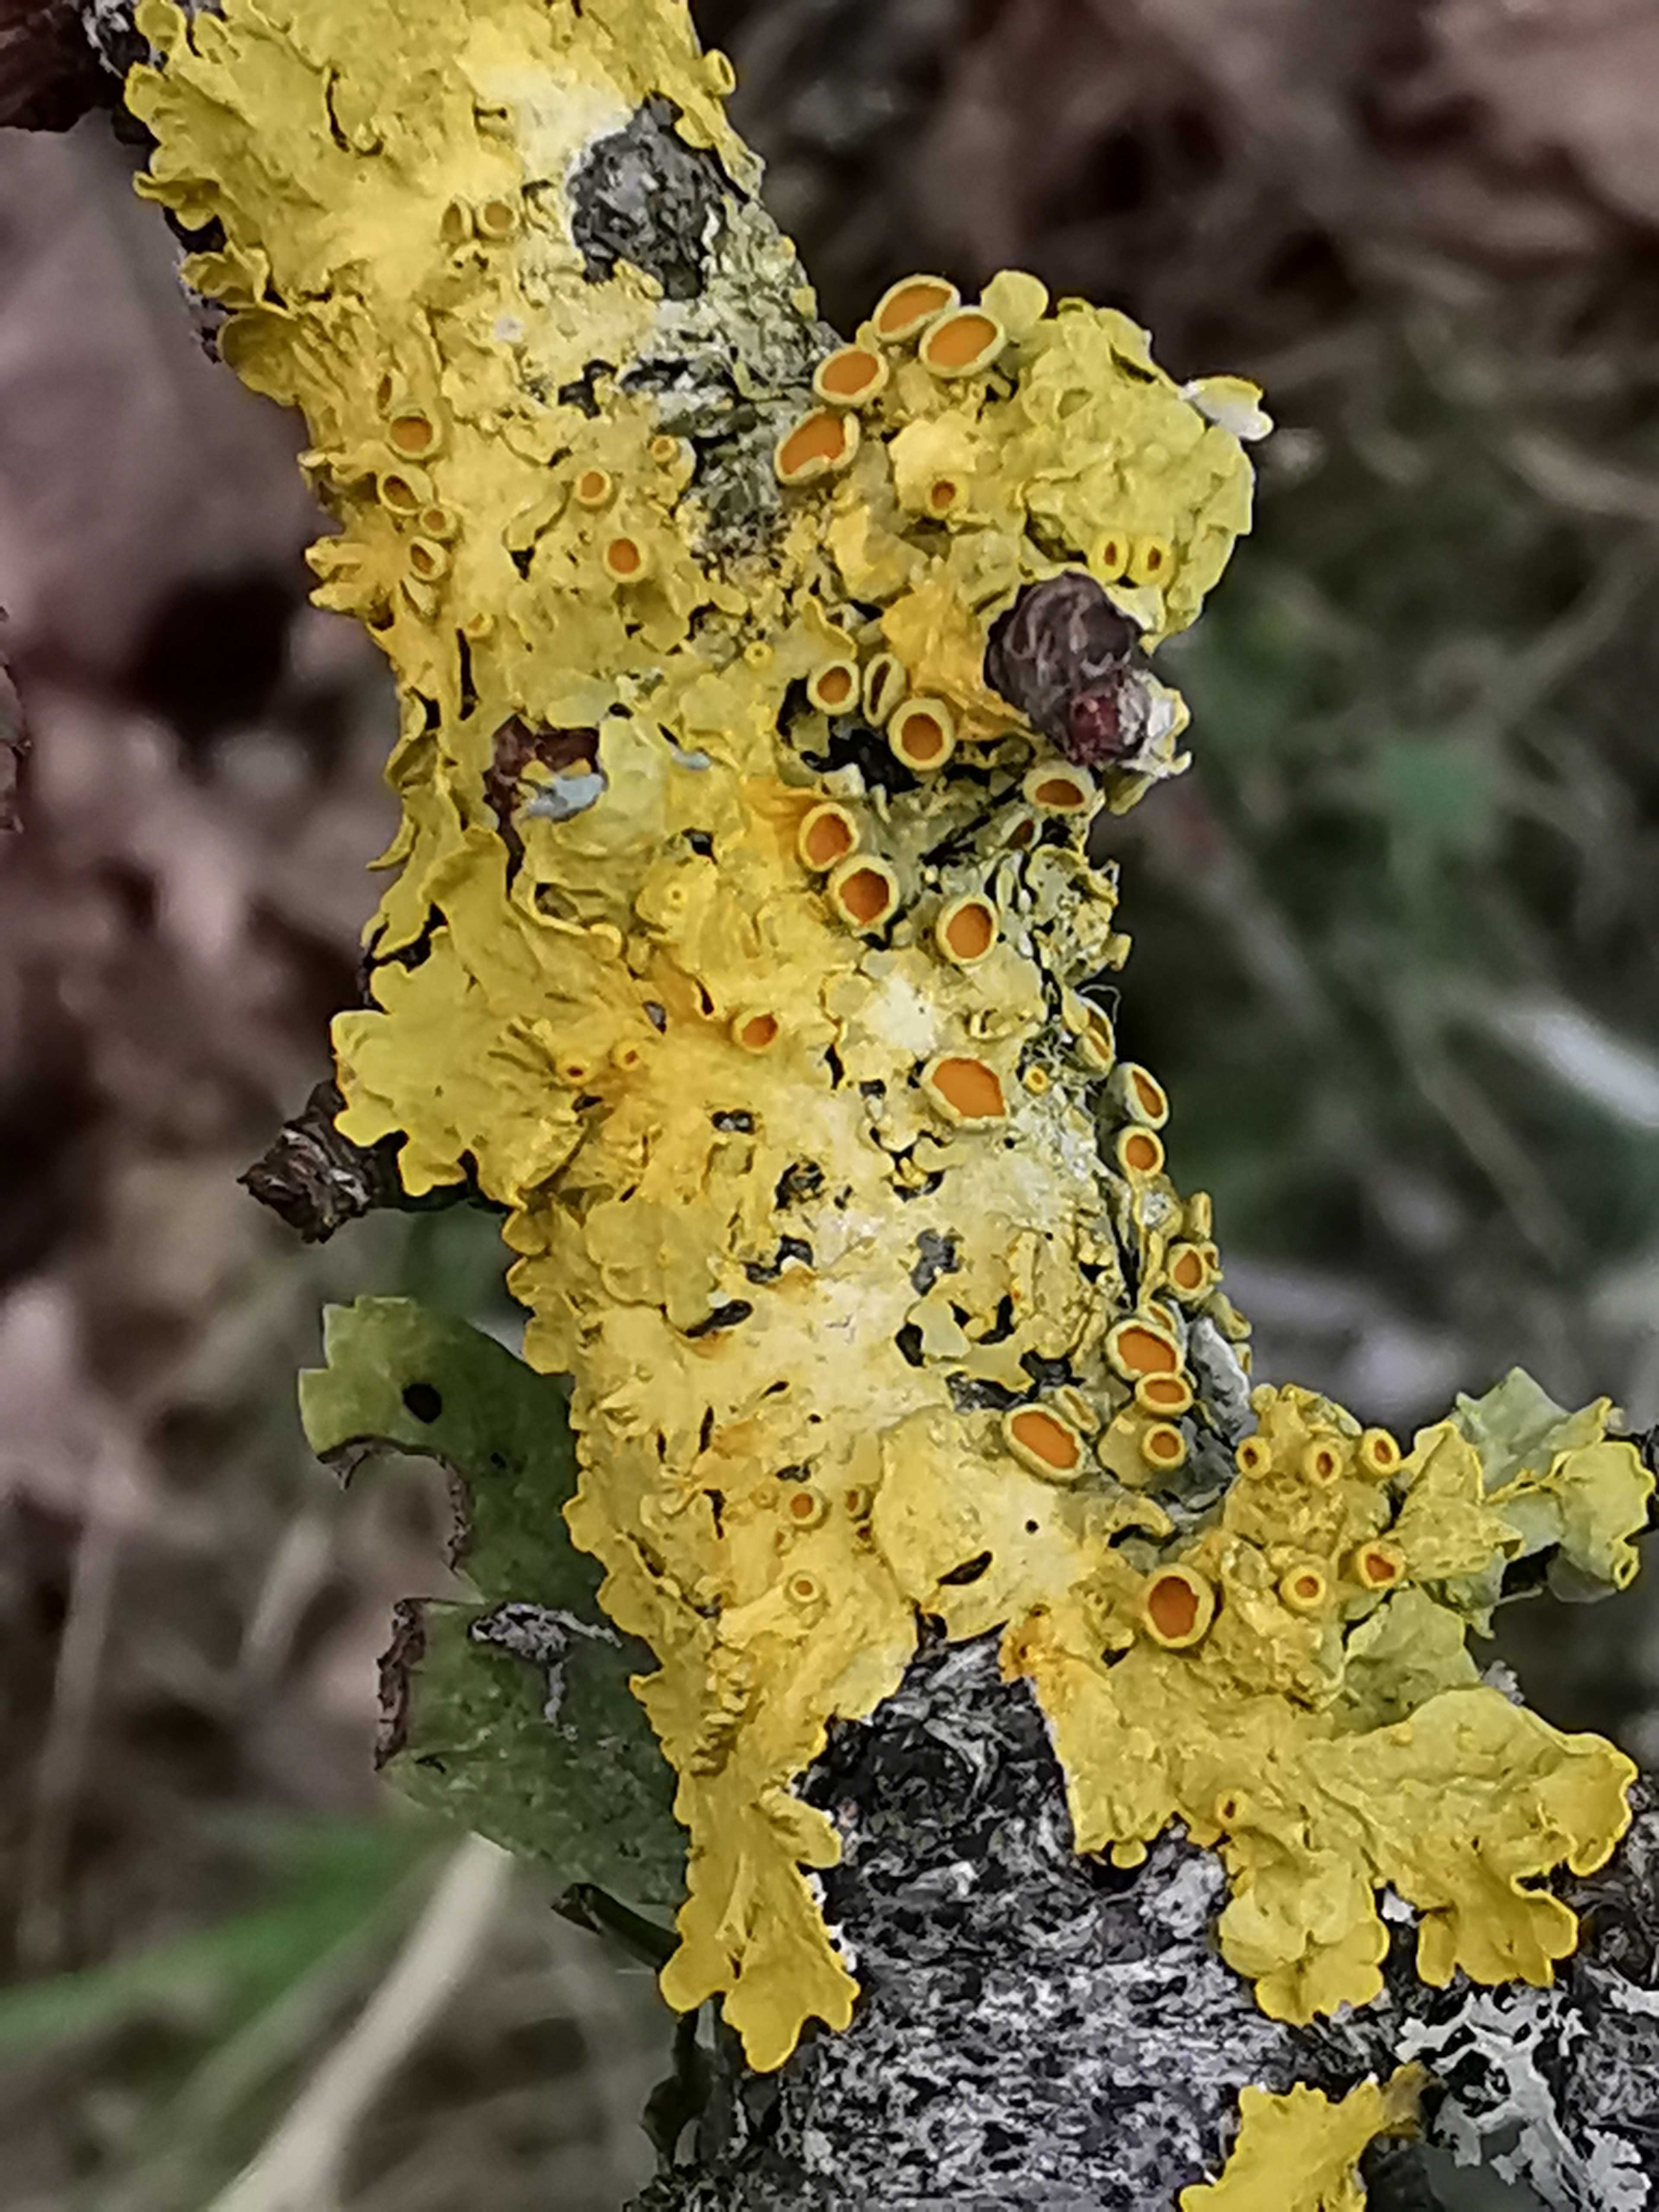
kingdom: Fungi
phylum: Ascomycota
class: Lecanoromycetes
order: Teloschistales
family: Teloschistaceae
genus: Xanthoria
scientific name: Xanthoria parietina
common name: almindelig væggelav
